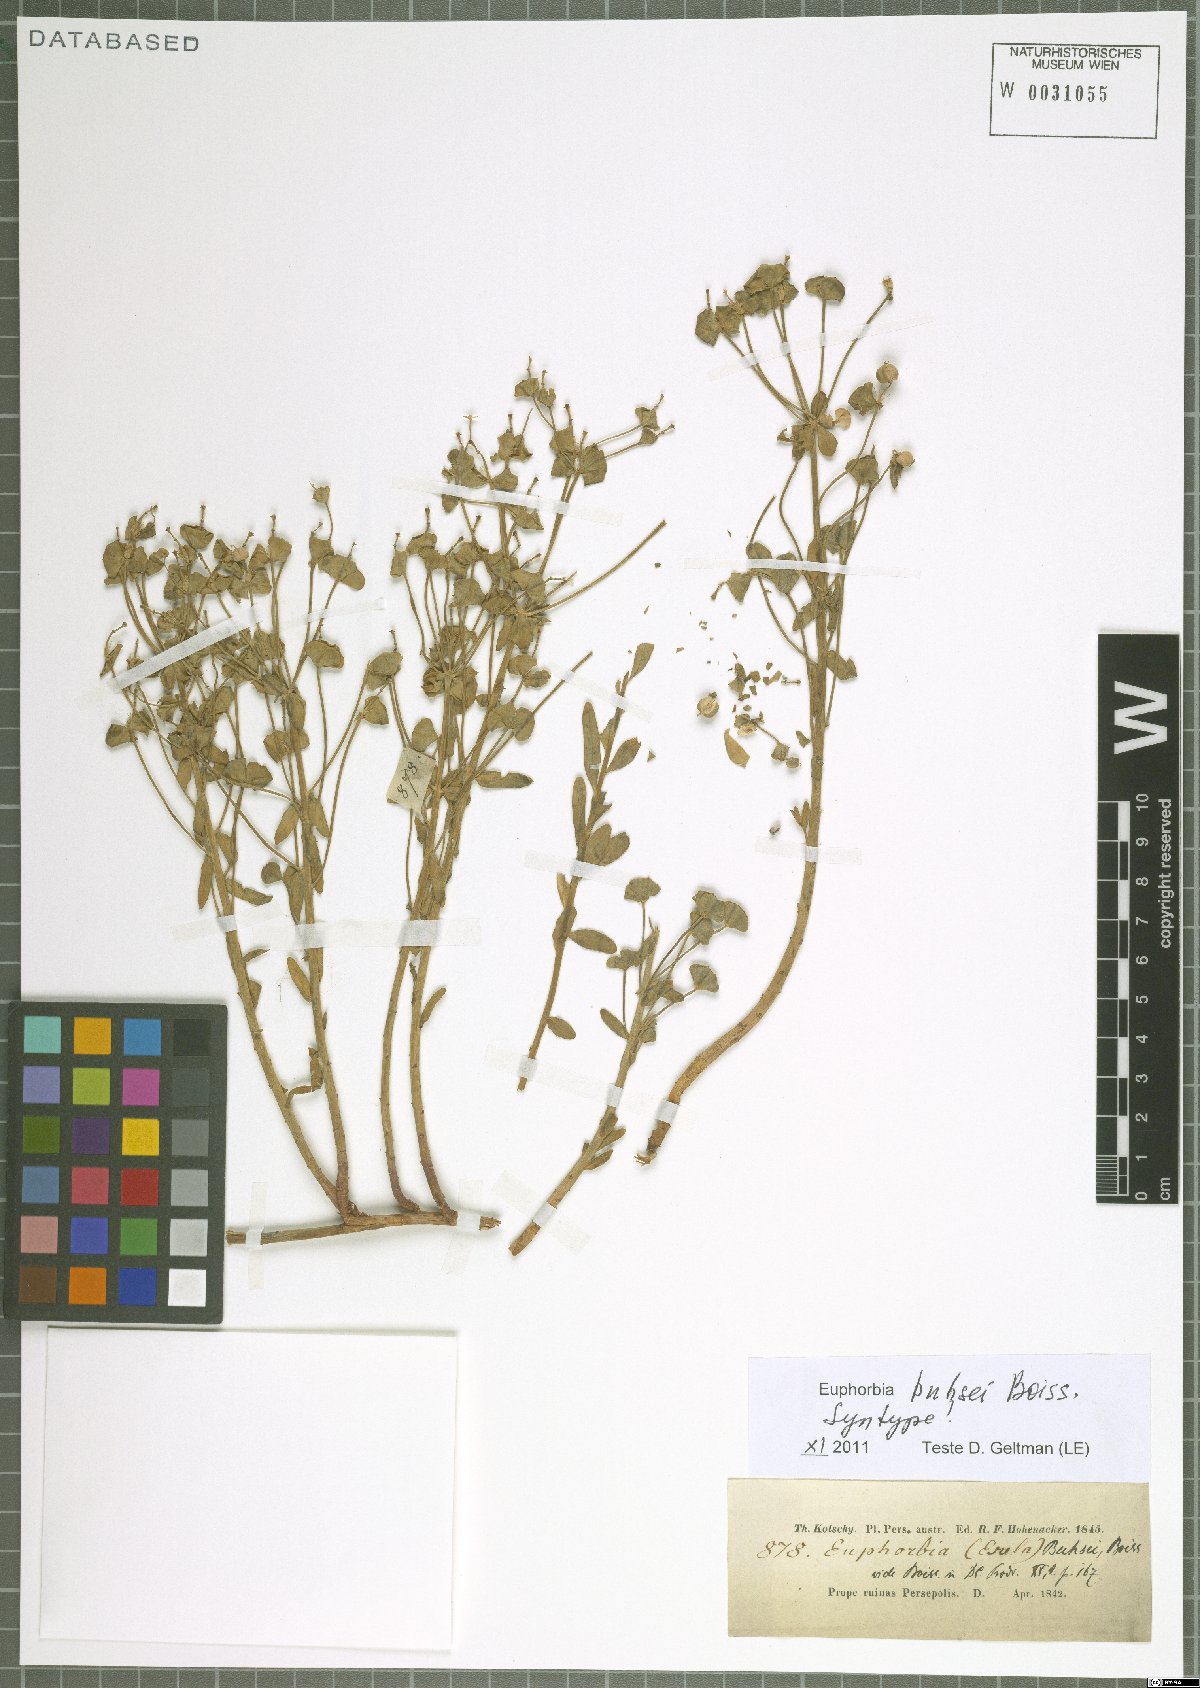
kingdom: Plantae
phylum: Tracheophyta
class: Magnoliopsida
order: Malpighiales
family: Euphorbiaceae
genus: Euphorbia
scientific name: Euphorbia buhsei
